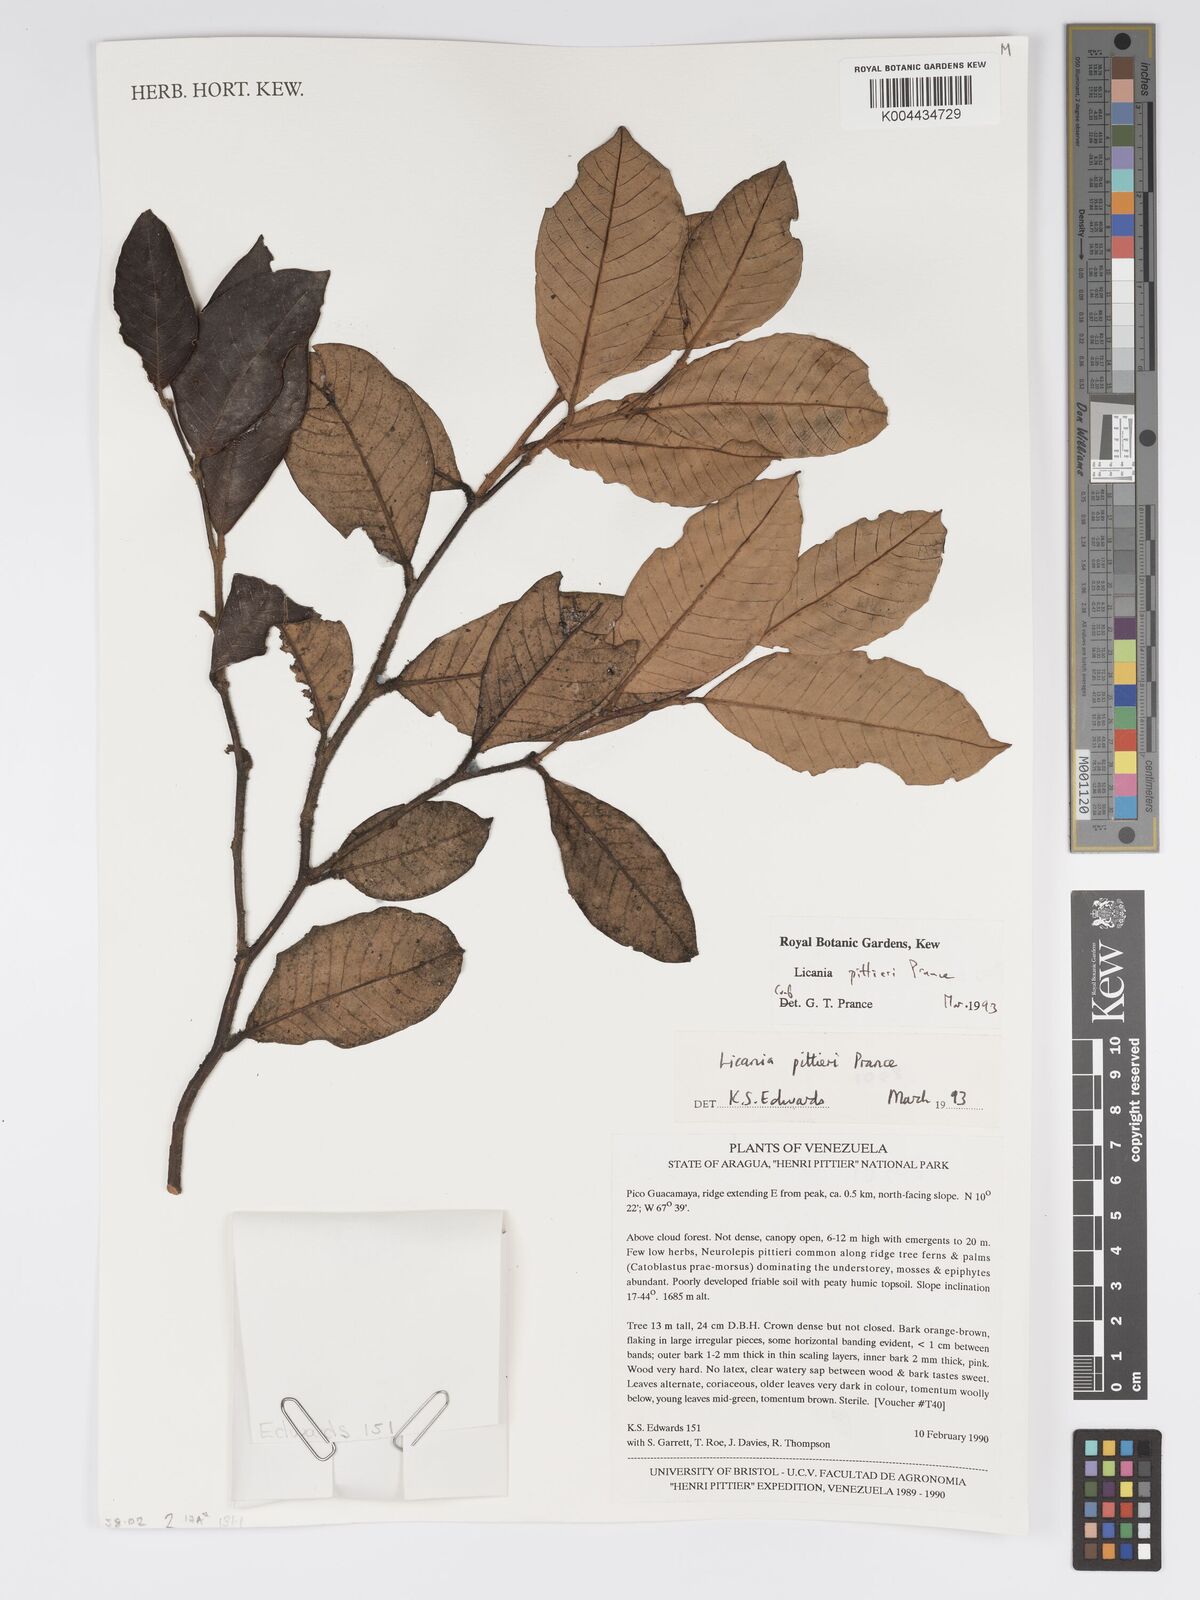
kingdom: Plantae
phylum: Tracheophyta
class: Magnoliopsida
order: Malpighiales
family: Chrysobalanaceae
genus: Licania
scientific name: Licania pittieri
